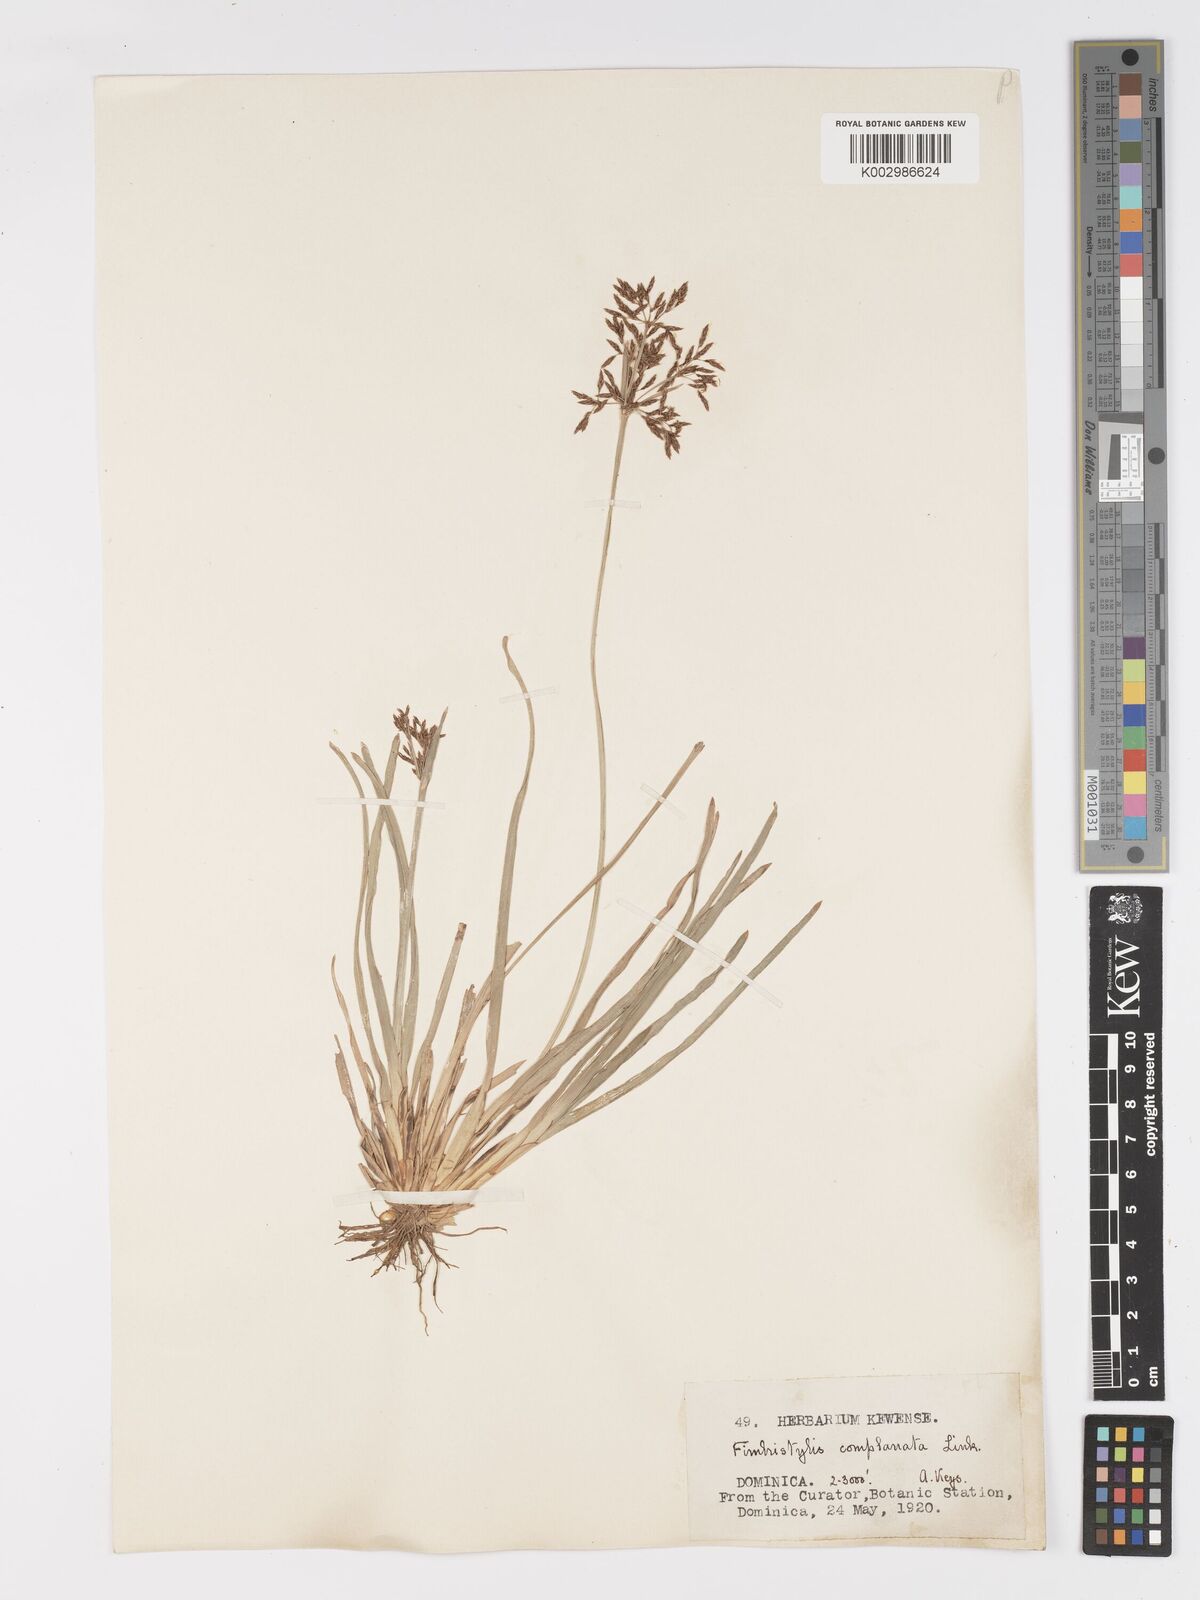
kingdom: Plantae
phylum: Tracheophyta
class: Liliopsida
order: Poales
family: Cyperaceae
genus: Fimbristylis
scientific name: Fimbristylis complanata
